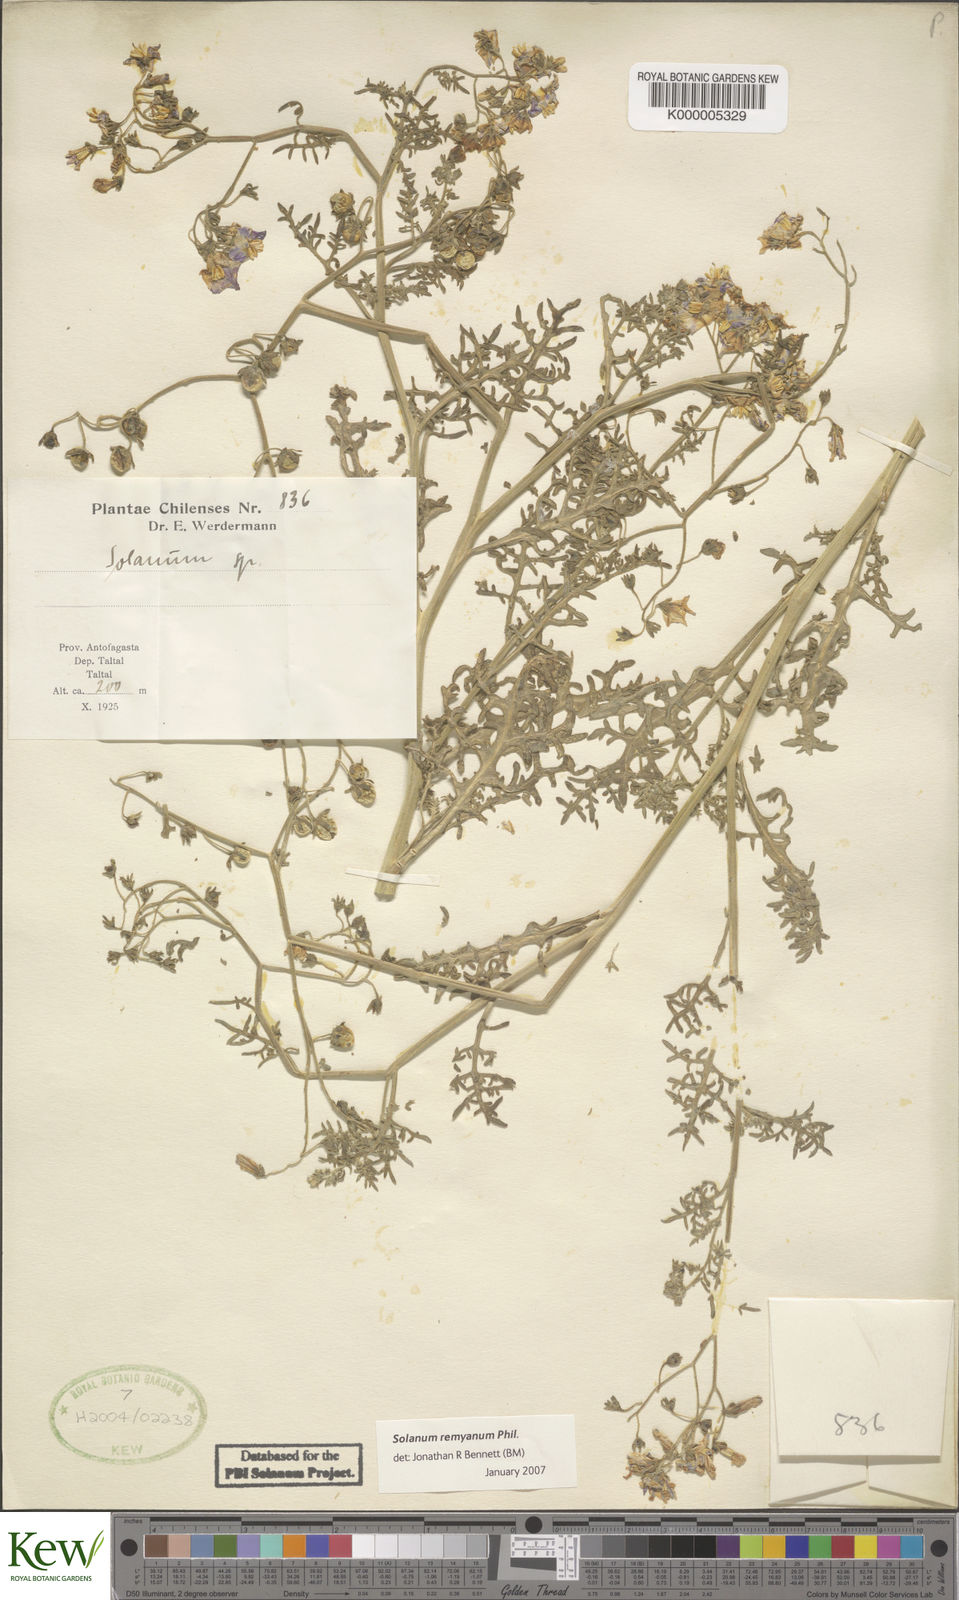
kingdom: Plantae
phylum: Tracheophyta
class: Magnoliopsida
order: Solanales
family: Solanaceae
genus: Solanum
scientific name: Solanum remyanum
